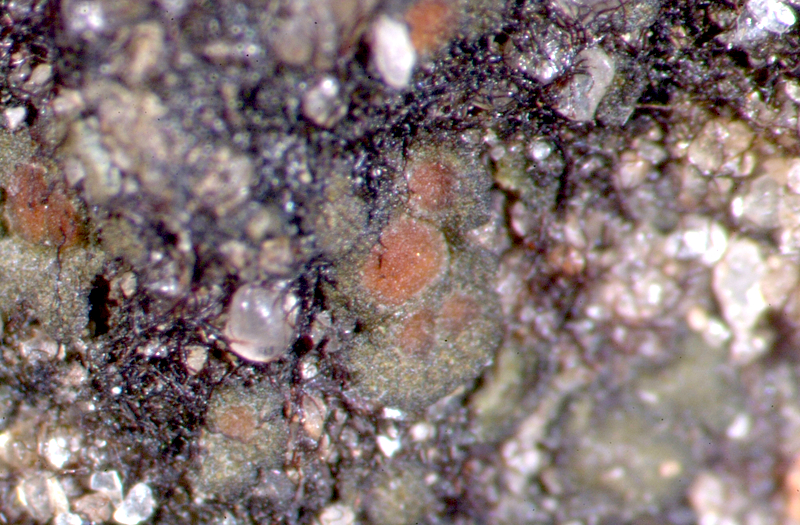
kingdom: Fungi
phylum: Ascomycota
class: Lichinomycetes
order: Lichinales
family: Peltulaceae
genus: Peltula
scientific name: Peltula patellata
